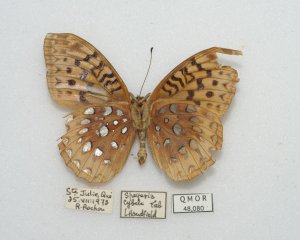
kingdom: Animalia
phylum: Arthropoda
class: Insecta
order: Lepidoptera
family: Nymphalidae
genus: Speyeria
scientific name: Speyeria cybele
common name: Great Spangled Fritillary
